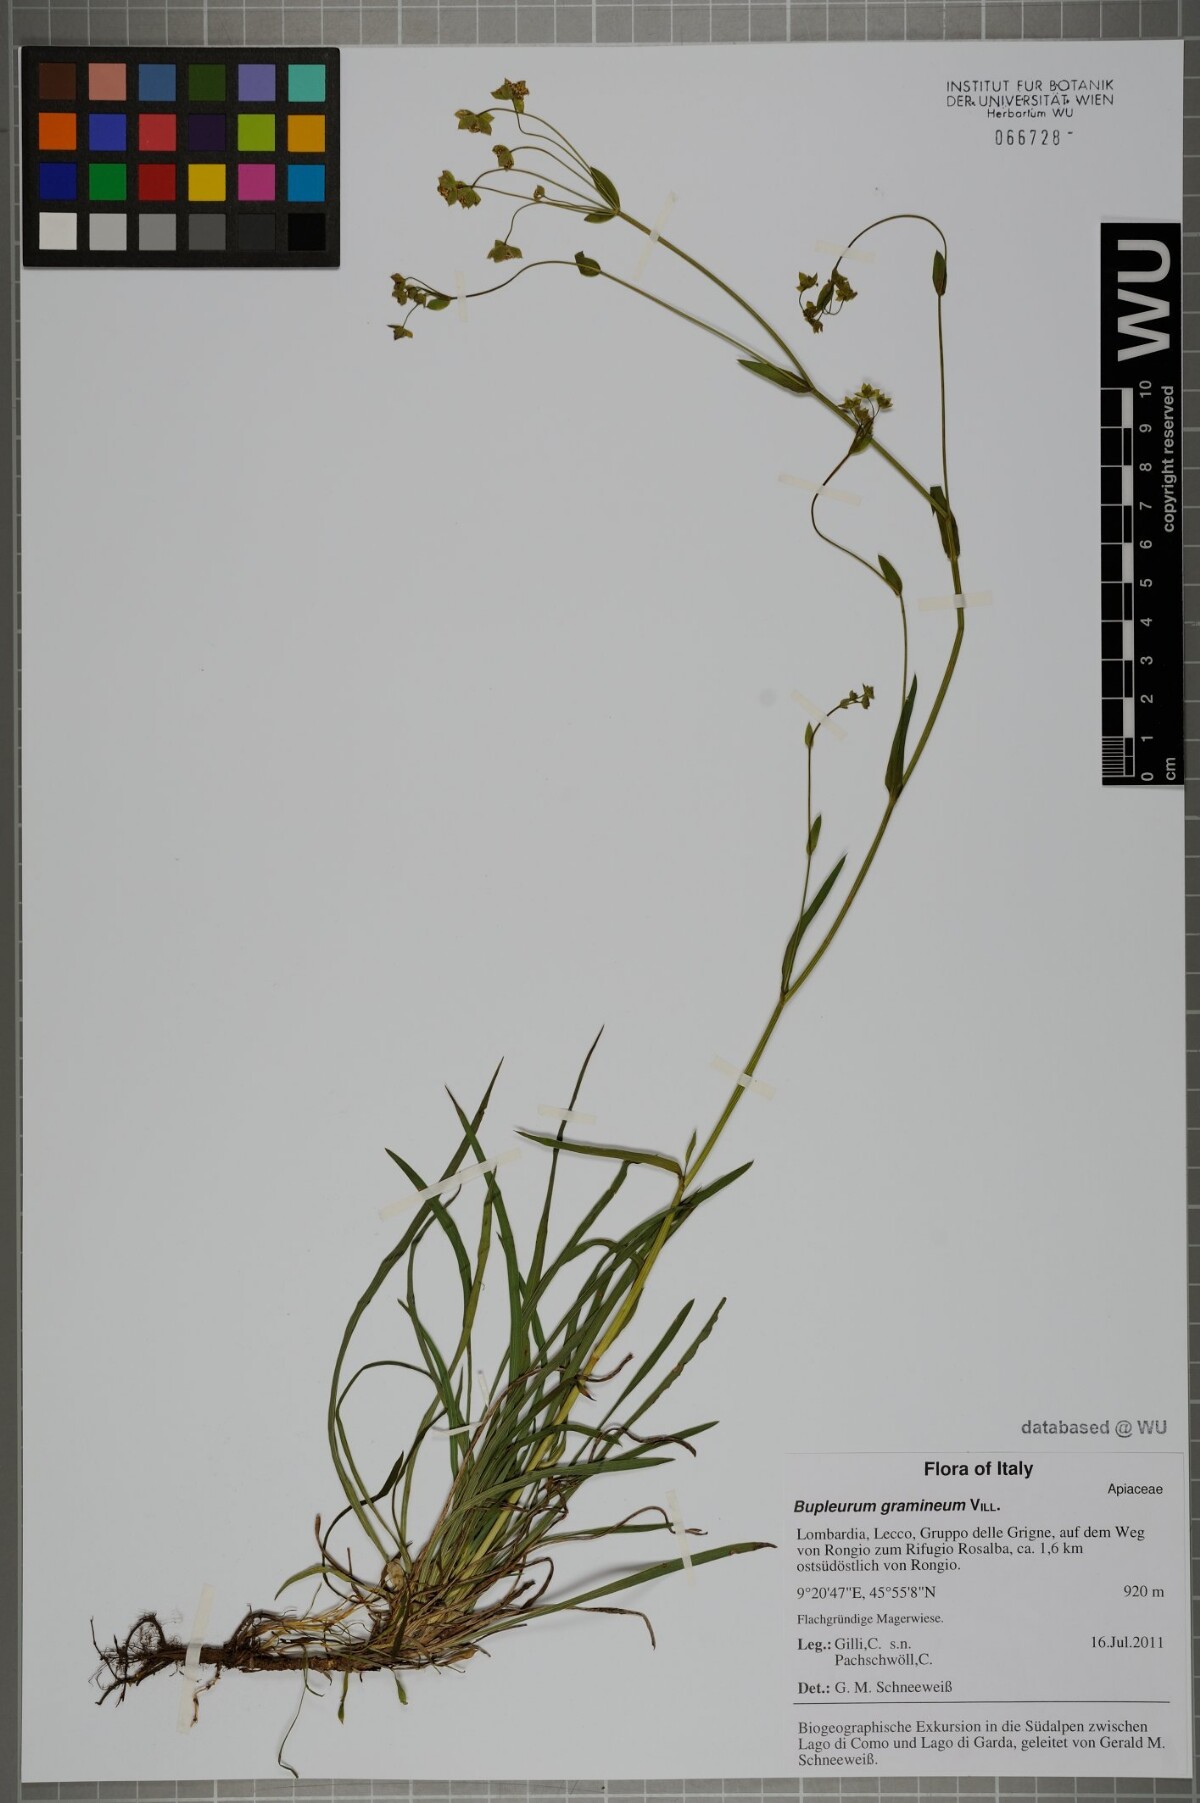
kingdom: Plantae
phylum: Tracheophyta
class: Magnoliopsida
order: Apiales
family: Apiaceae
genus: Bupleurum
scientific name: Bupleurum ranunculoides
